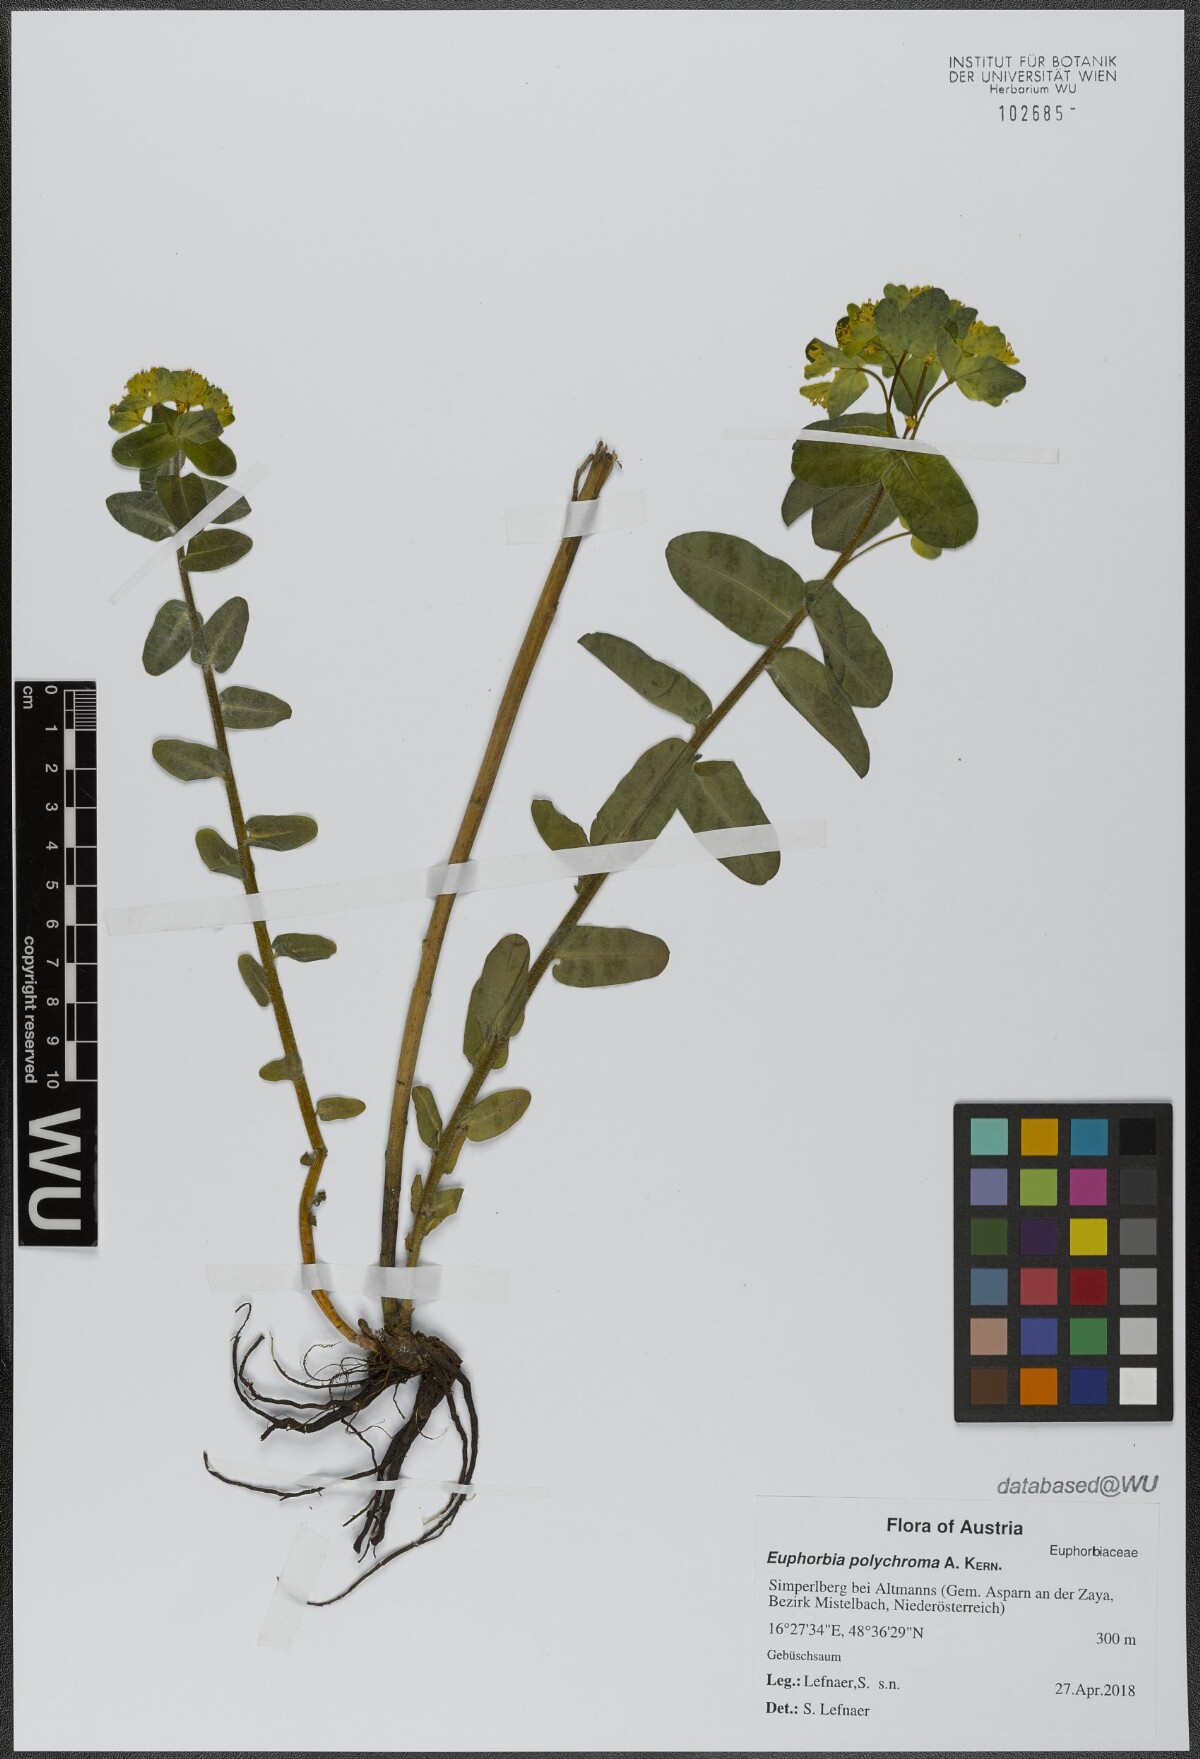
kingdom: Plantae
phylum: Tracheophyta
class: Magnoliopsida
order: Malpighiales
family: Euphorbiaceae
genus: Euphorbia
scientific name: Euphorbia epithymoides
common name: Cushion spurge
